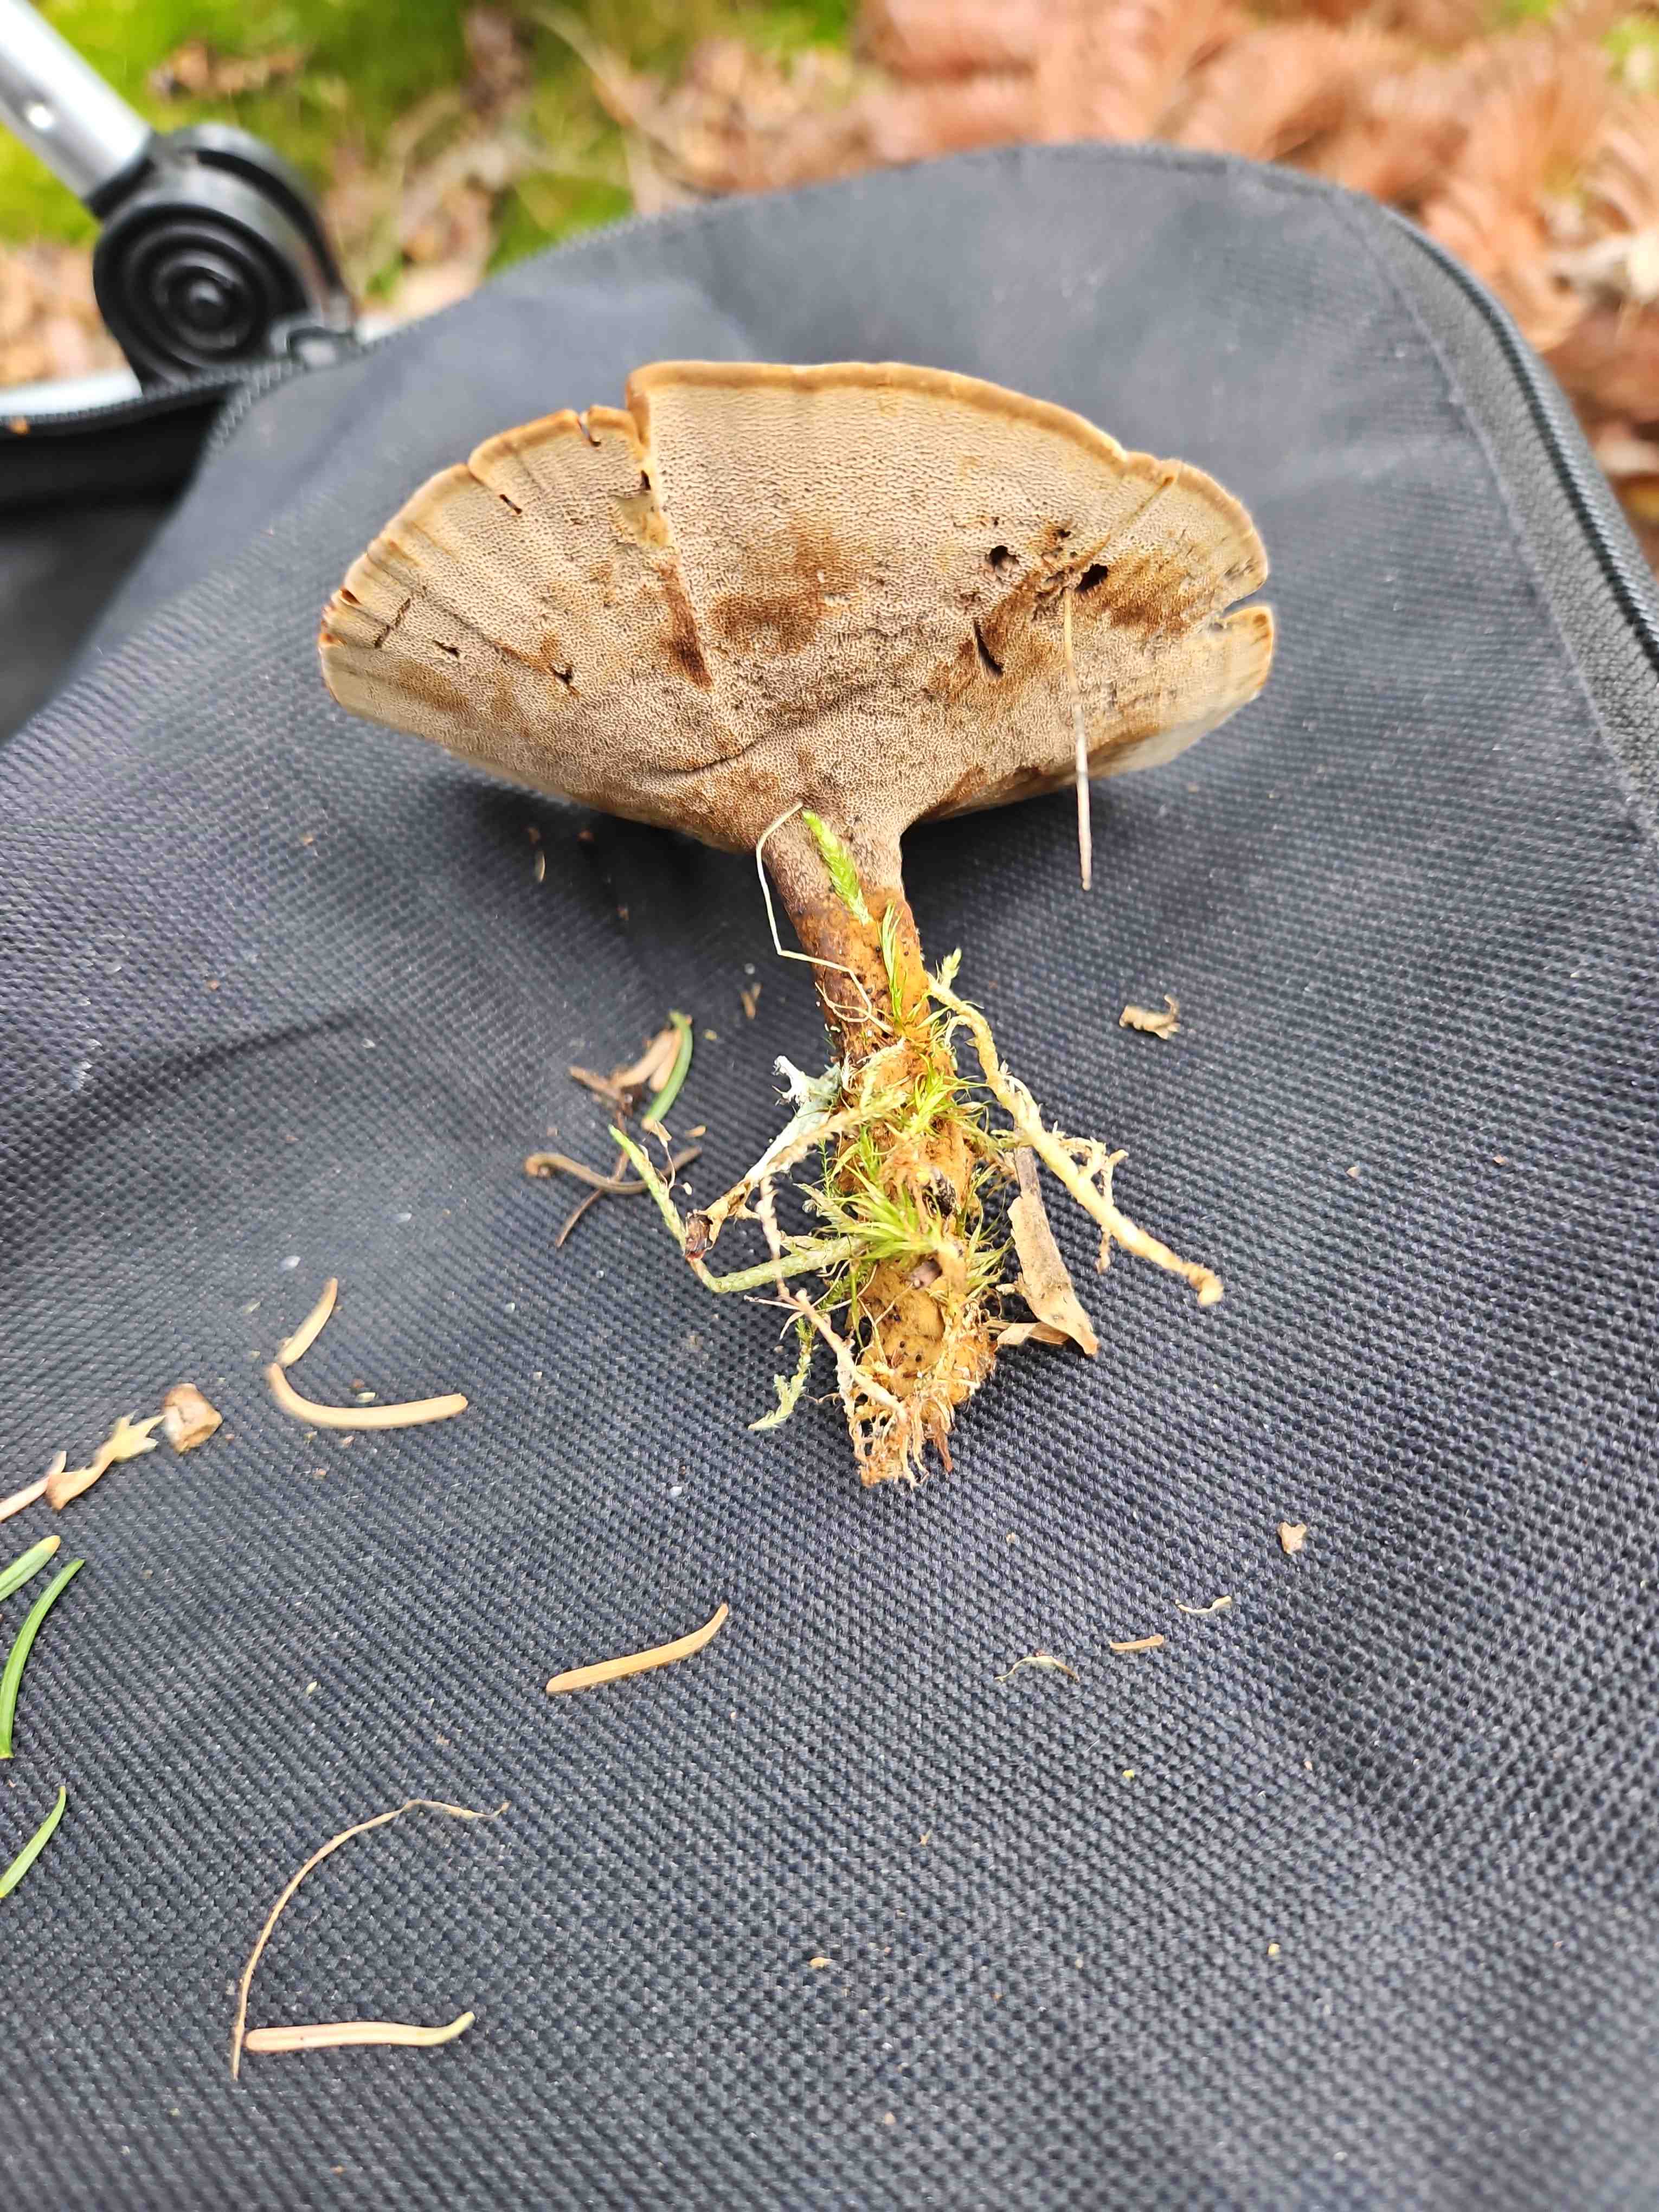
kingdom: Fungi
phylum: Basidiomycota
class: Agaricomycetes
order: Hymenochaetales
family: Hymenochaetaceae
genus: Coltricia
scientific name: Coltricia perennis
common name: almindelig sandporesvamp
